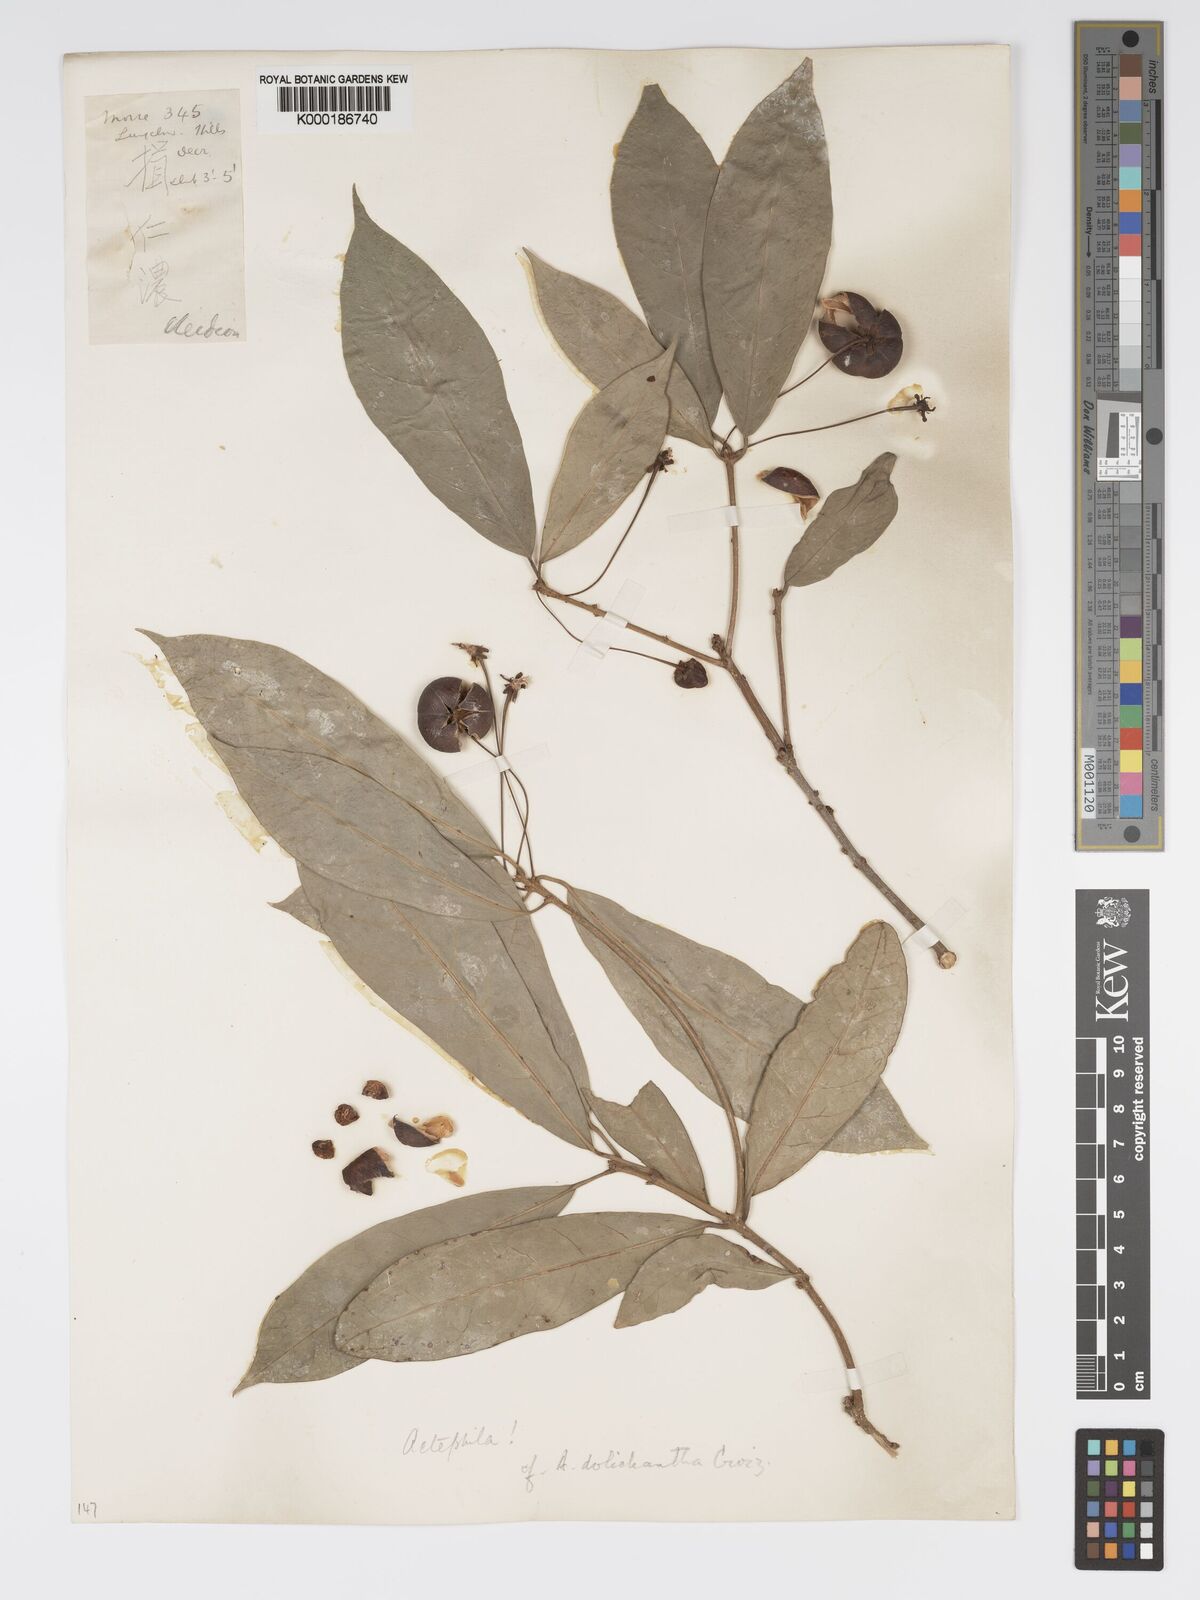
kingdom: Plantae
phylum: Tracheophyta
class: Magnoliopsida
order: Malpighiales
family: Phyllanthaceae
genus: Actephila
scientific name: Actephila excelsa
